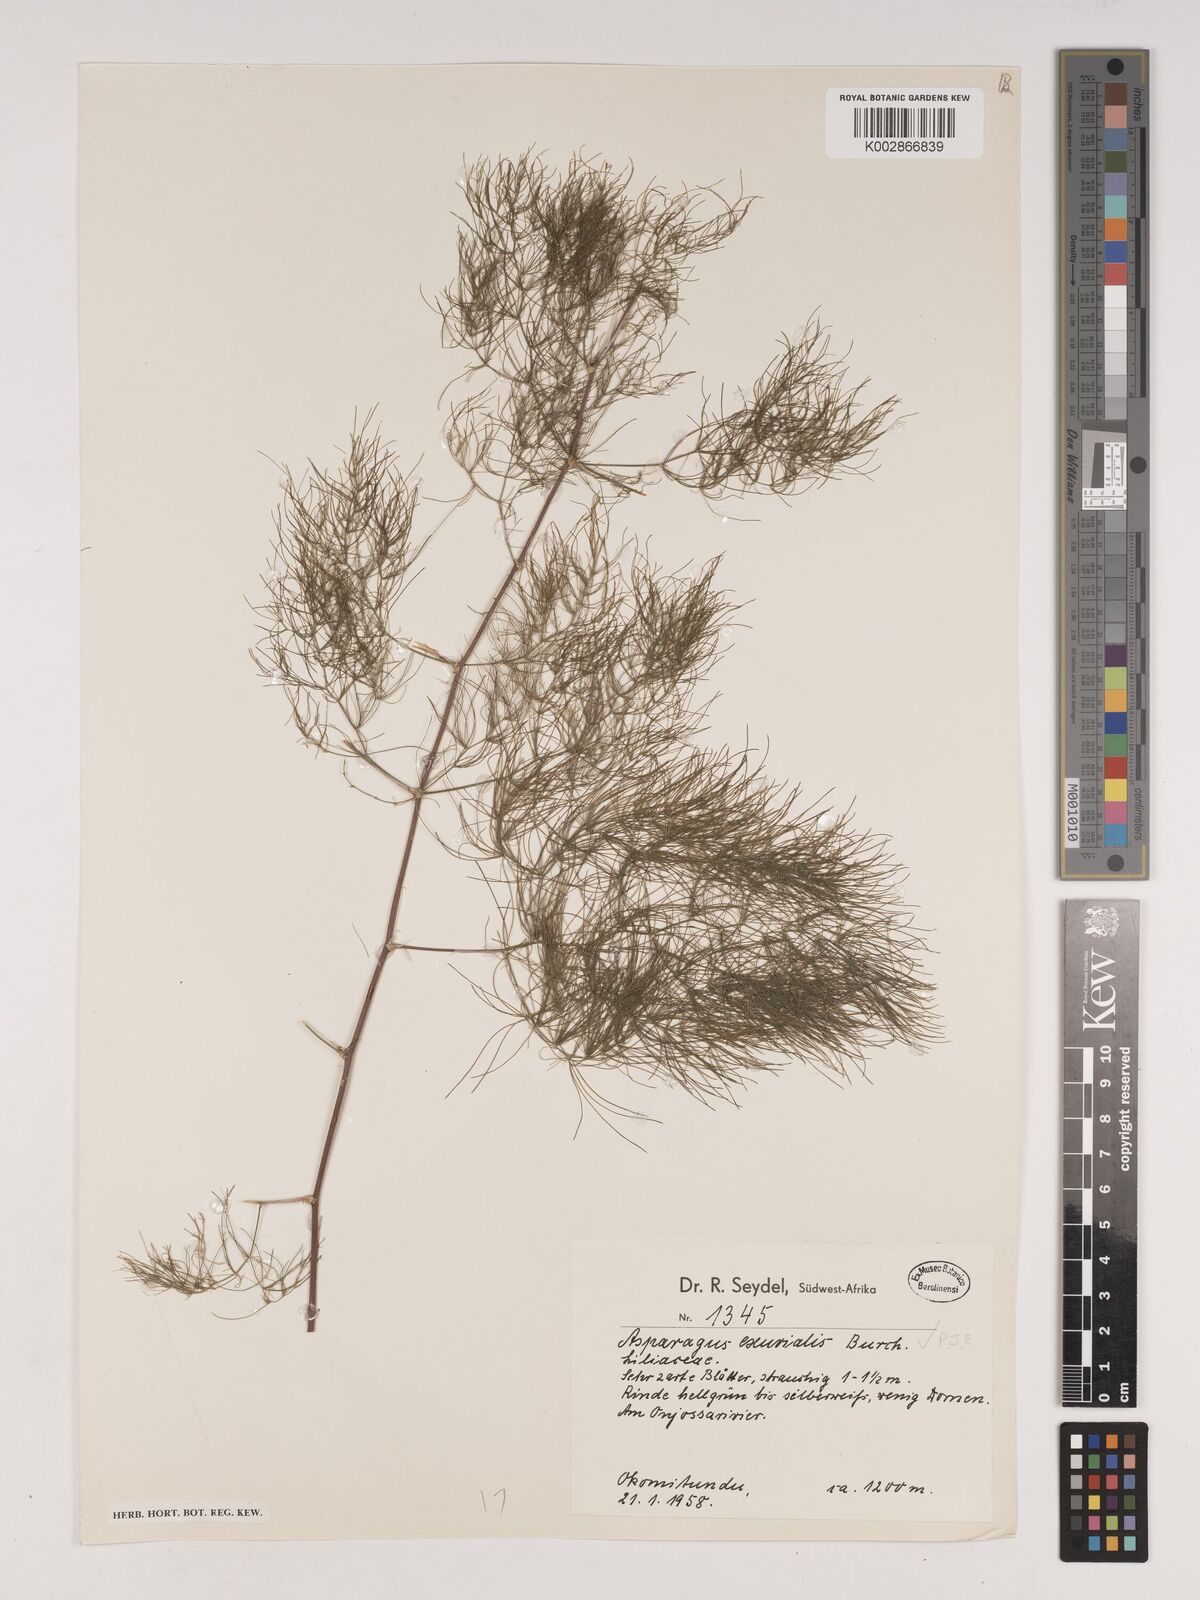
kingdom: Plantae
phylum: Tracheophyta
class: Liliopsida
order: Asparagales
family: Asparagaceae
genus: Asparagus
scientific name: Asparagus exuvialis
